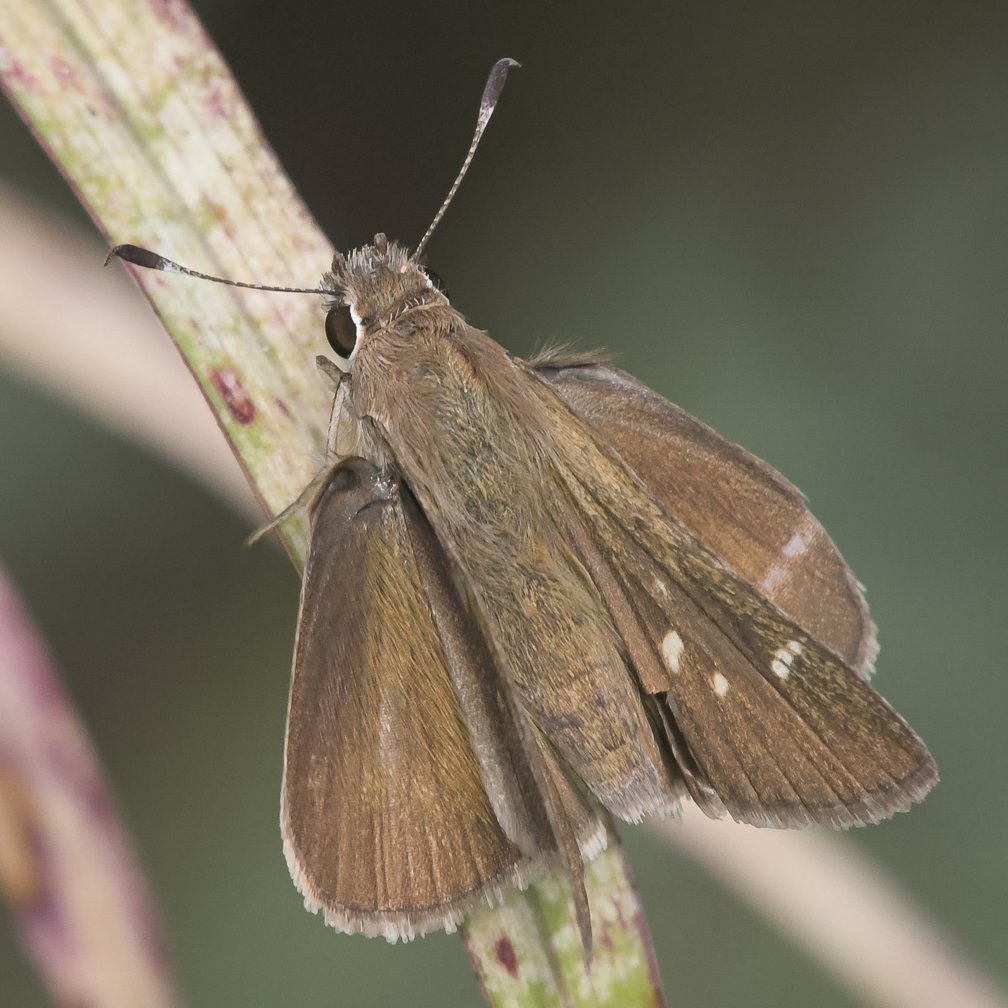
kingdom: Animalia
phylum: Arthropoda
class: Insecta
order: Lepidoptera
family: Hesperiidae
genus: Lerodea
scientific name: Lerodea eufala
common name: Eufala Skipper
